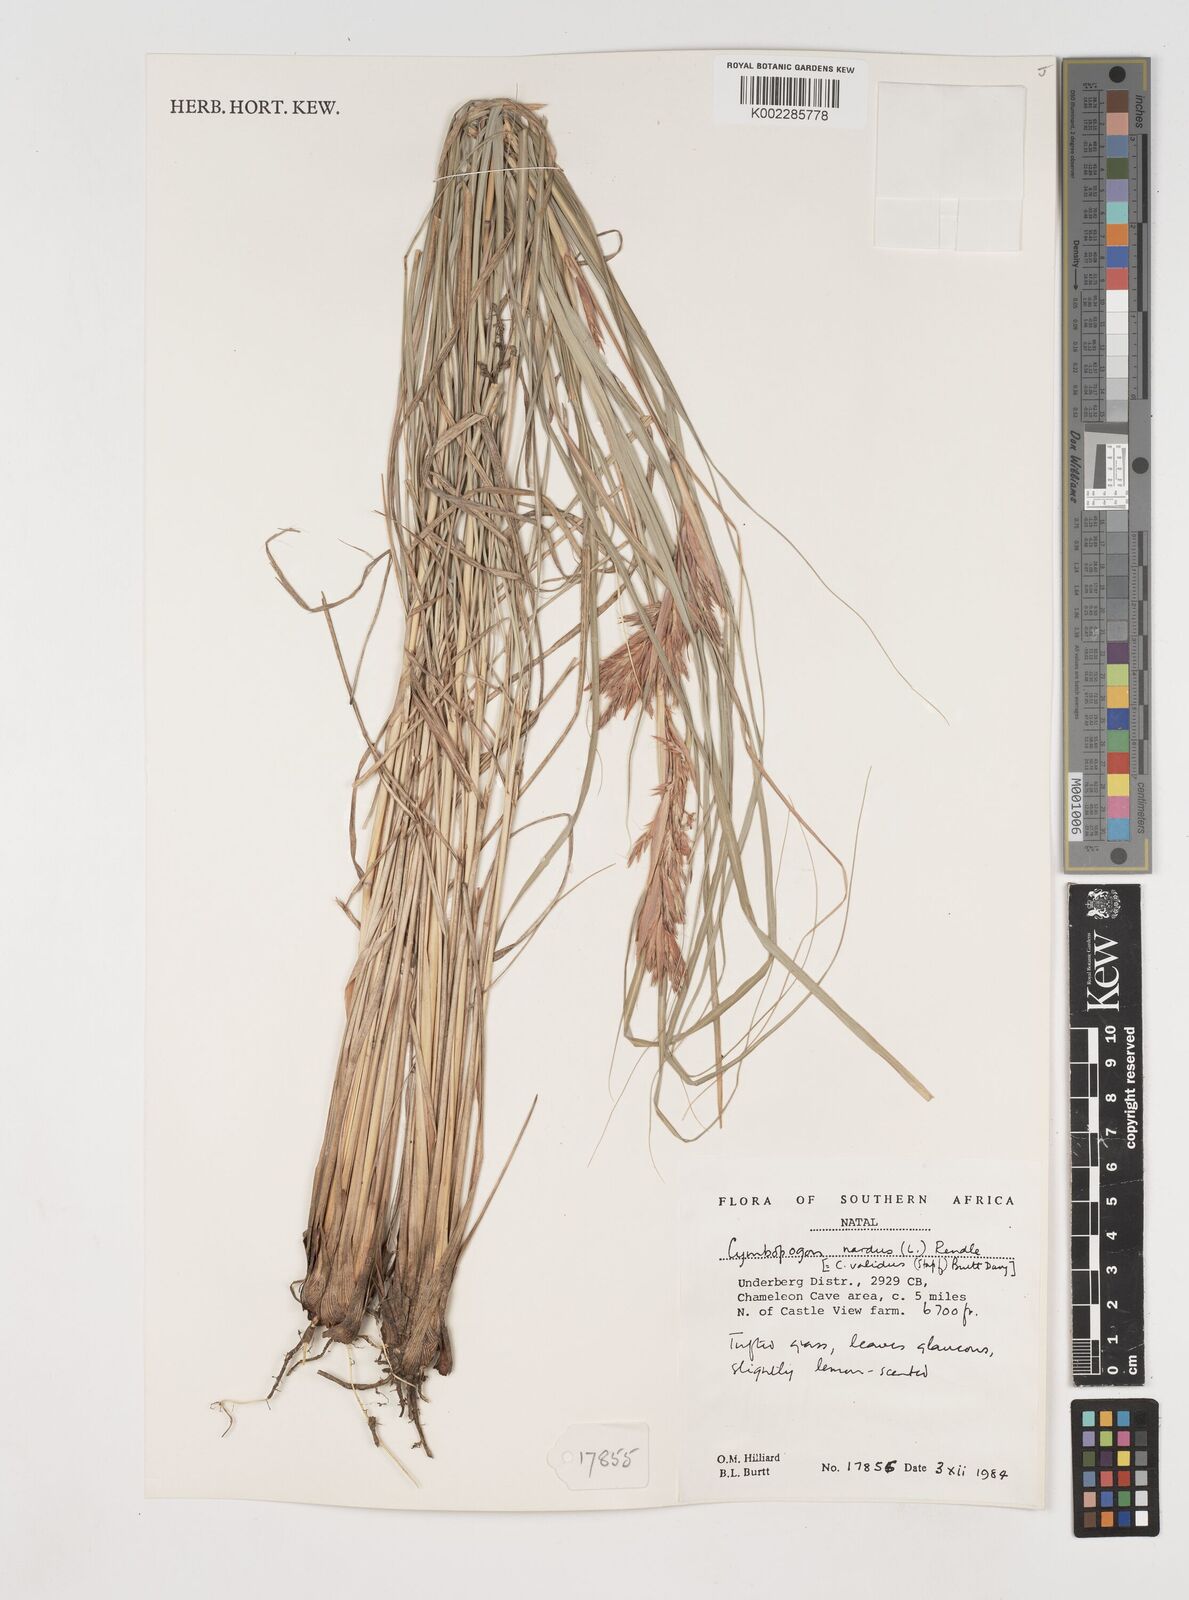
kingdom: Plantae
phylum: Tracheophyta
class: Liliopsida
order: Poales
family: Poaceae
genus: Cymbopogon
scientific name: Cymbopogon nardus
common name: Giant turpentine grass
